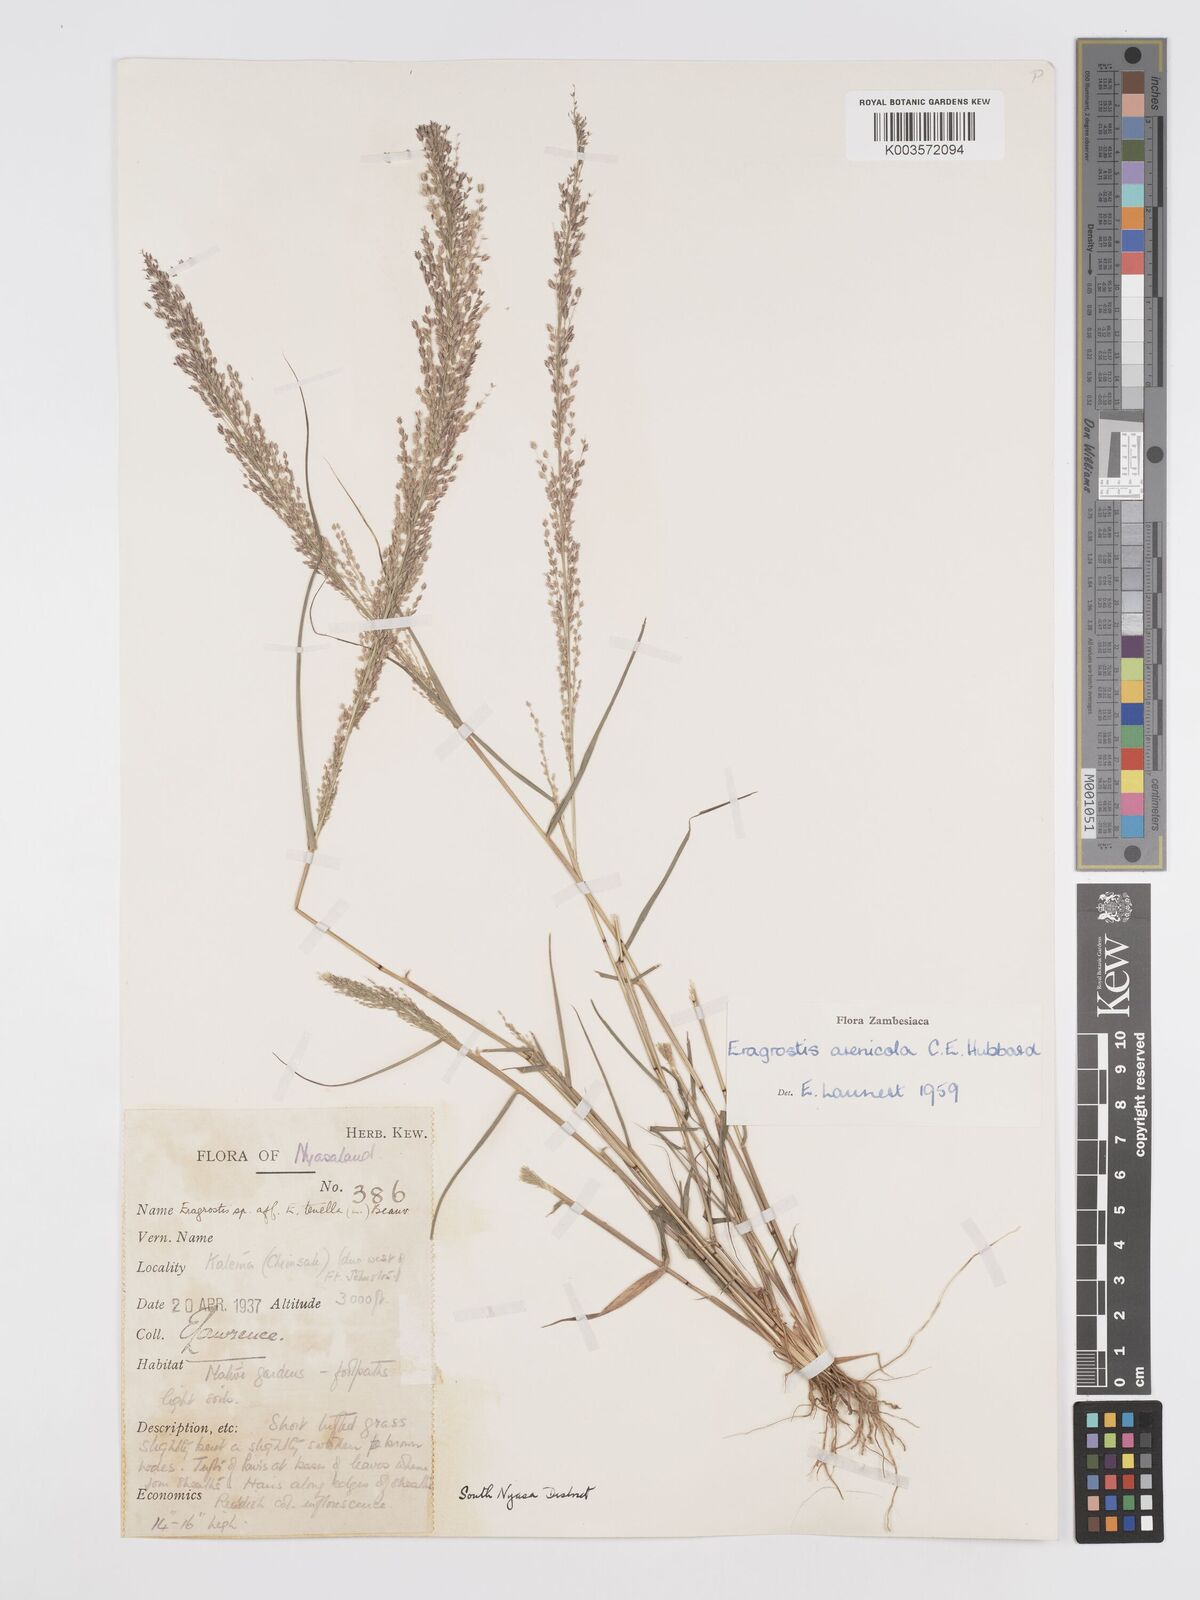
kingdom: Plantae
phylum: Tracheophyta
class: Liliopsida
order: Poales
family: Poaceae
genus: Eragrostis
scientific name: Eragrostis arenicola
